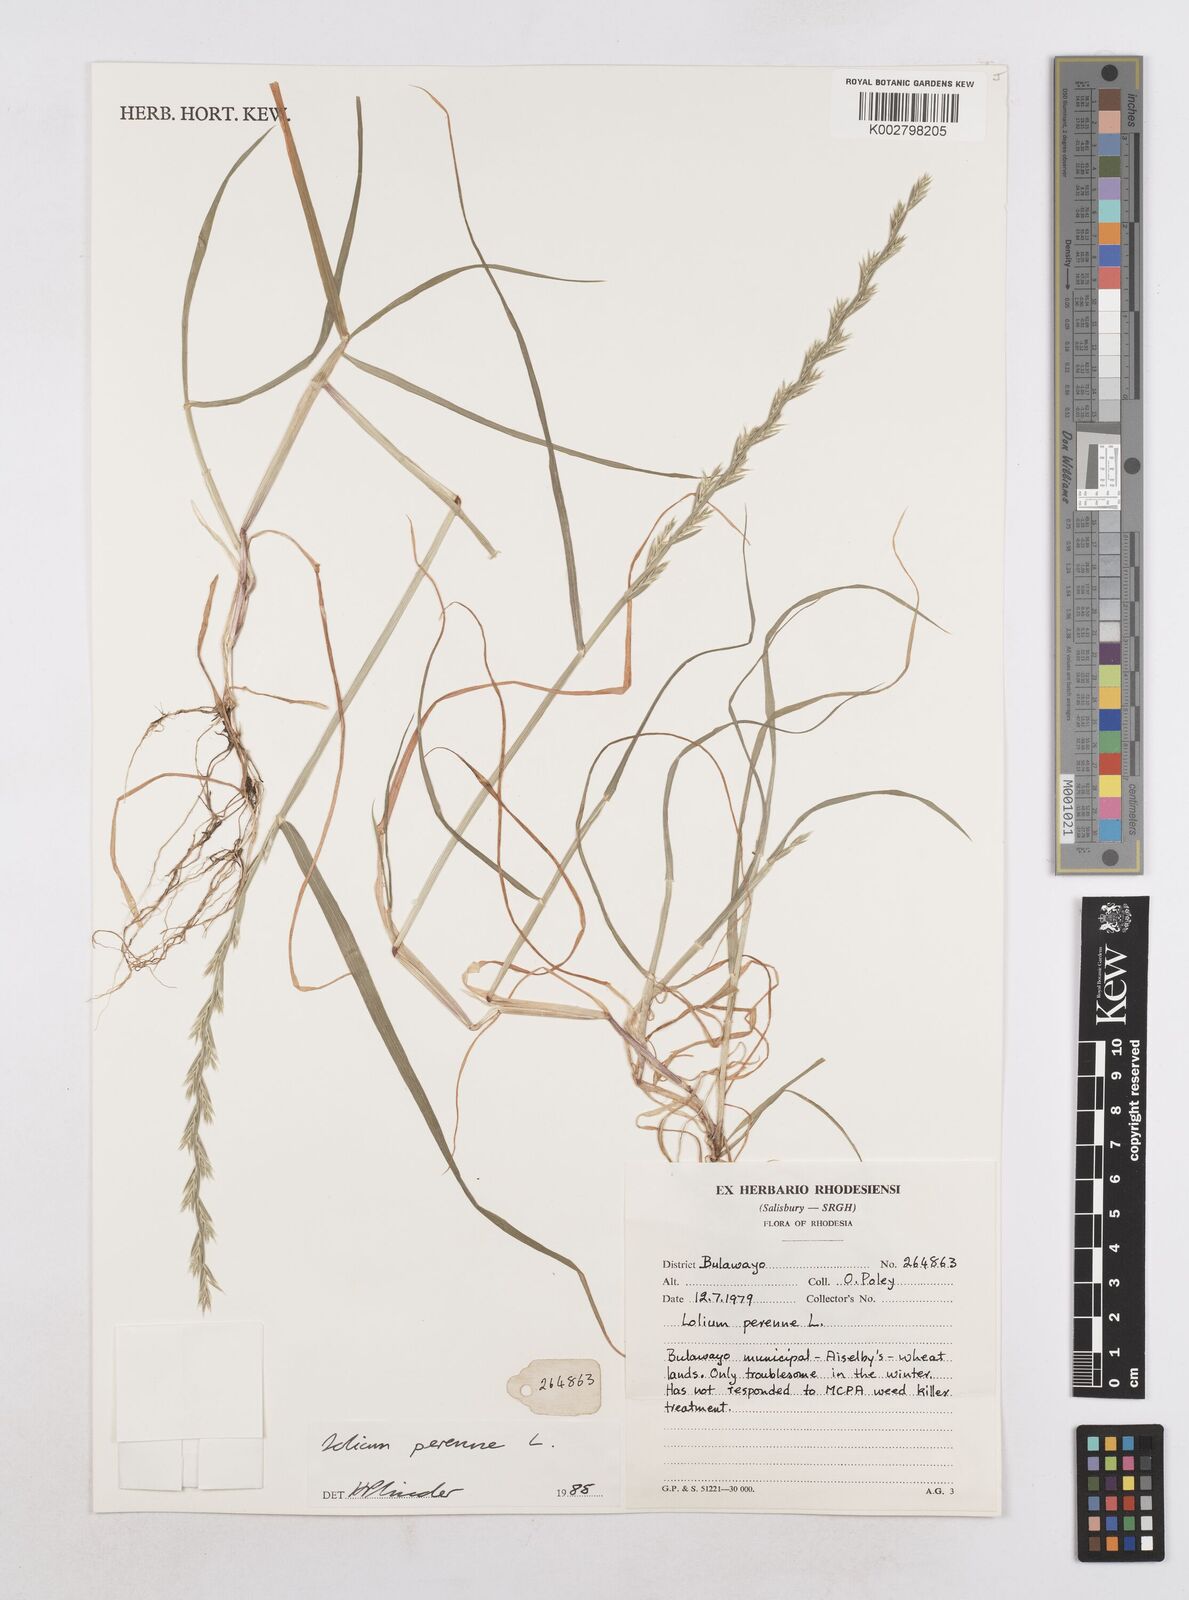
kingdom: Plantae
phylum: Tracheophyta
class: Liliopsida
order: Poales
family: Poaceae
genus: Lolium
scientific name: Lolium perenne
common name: Perennial ryegrass
